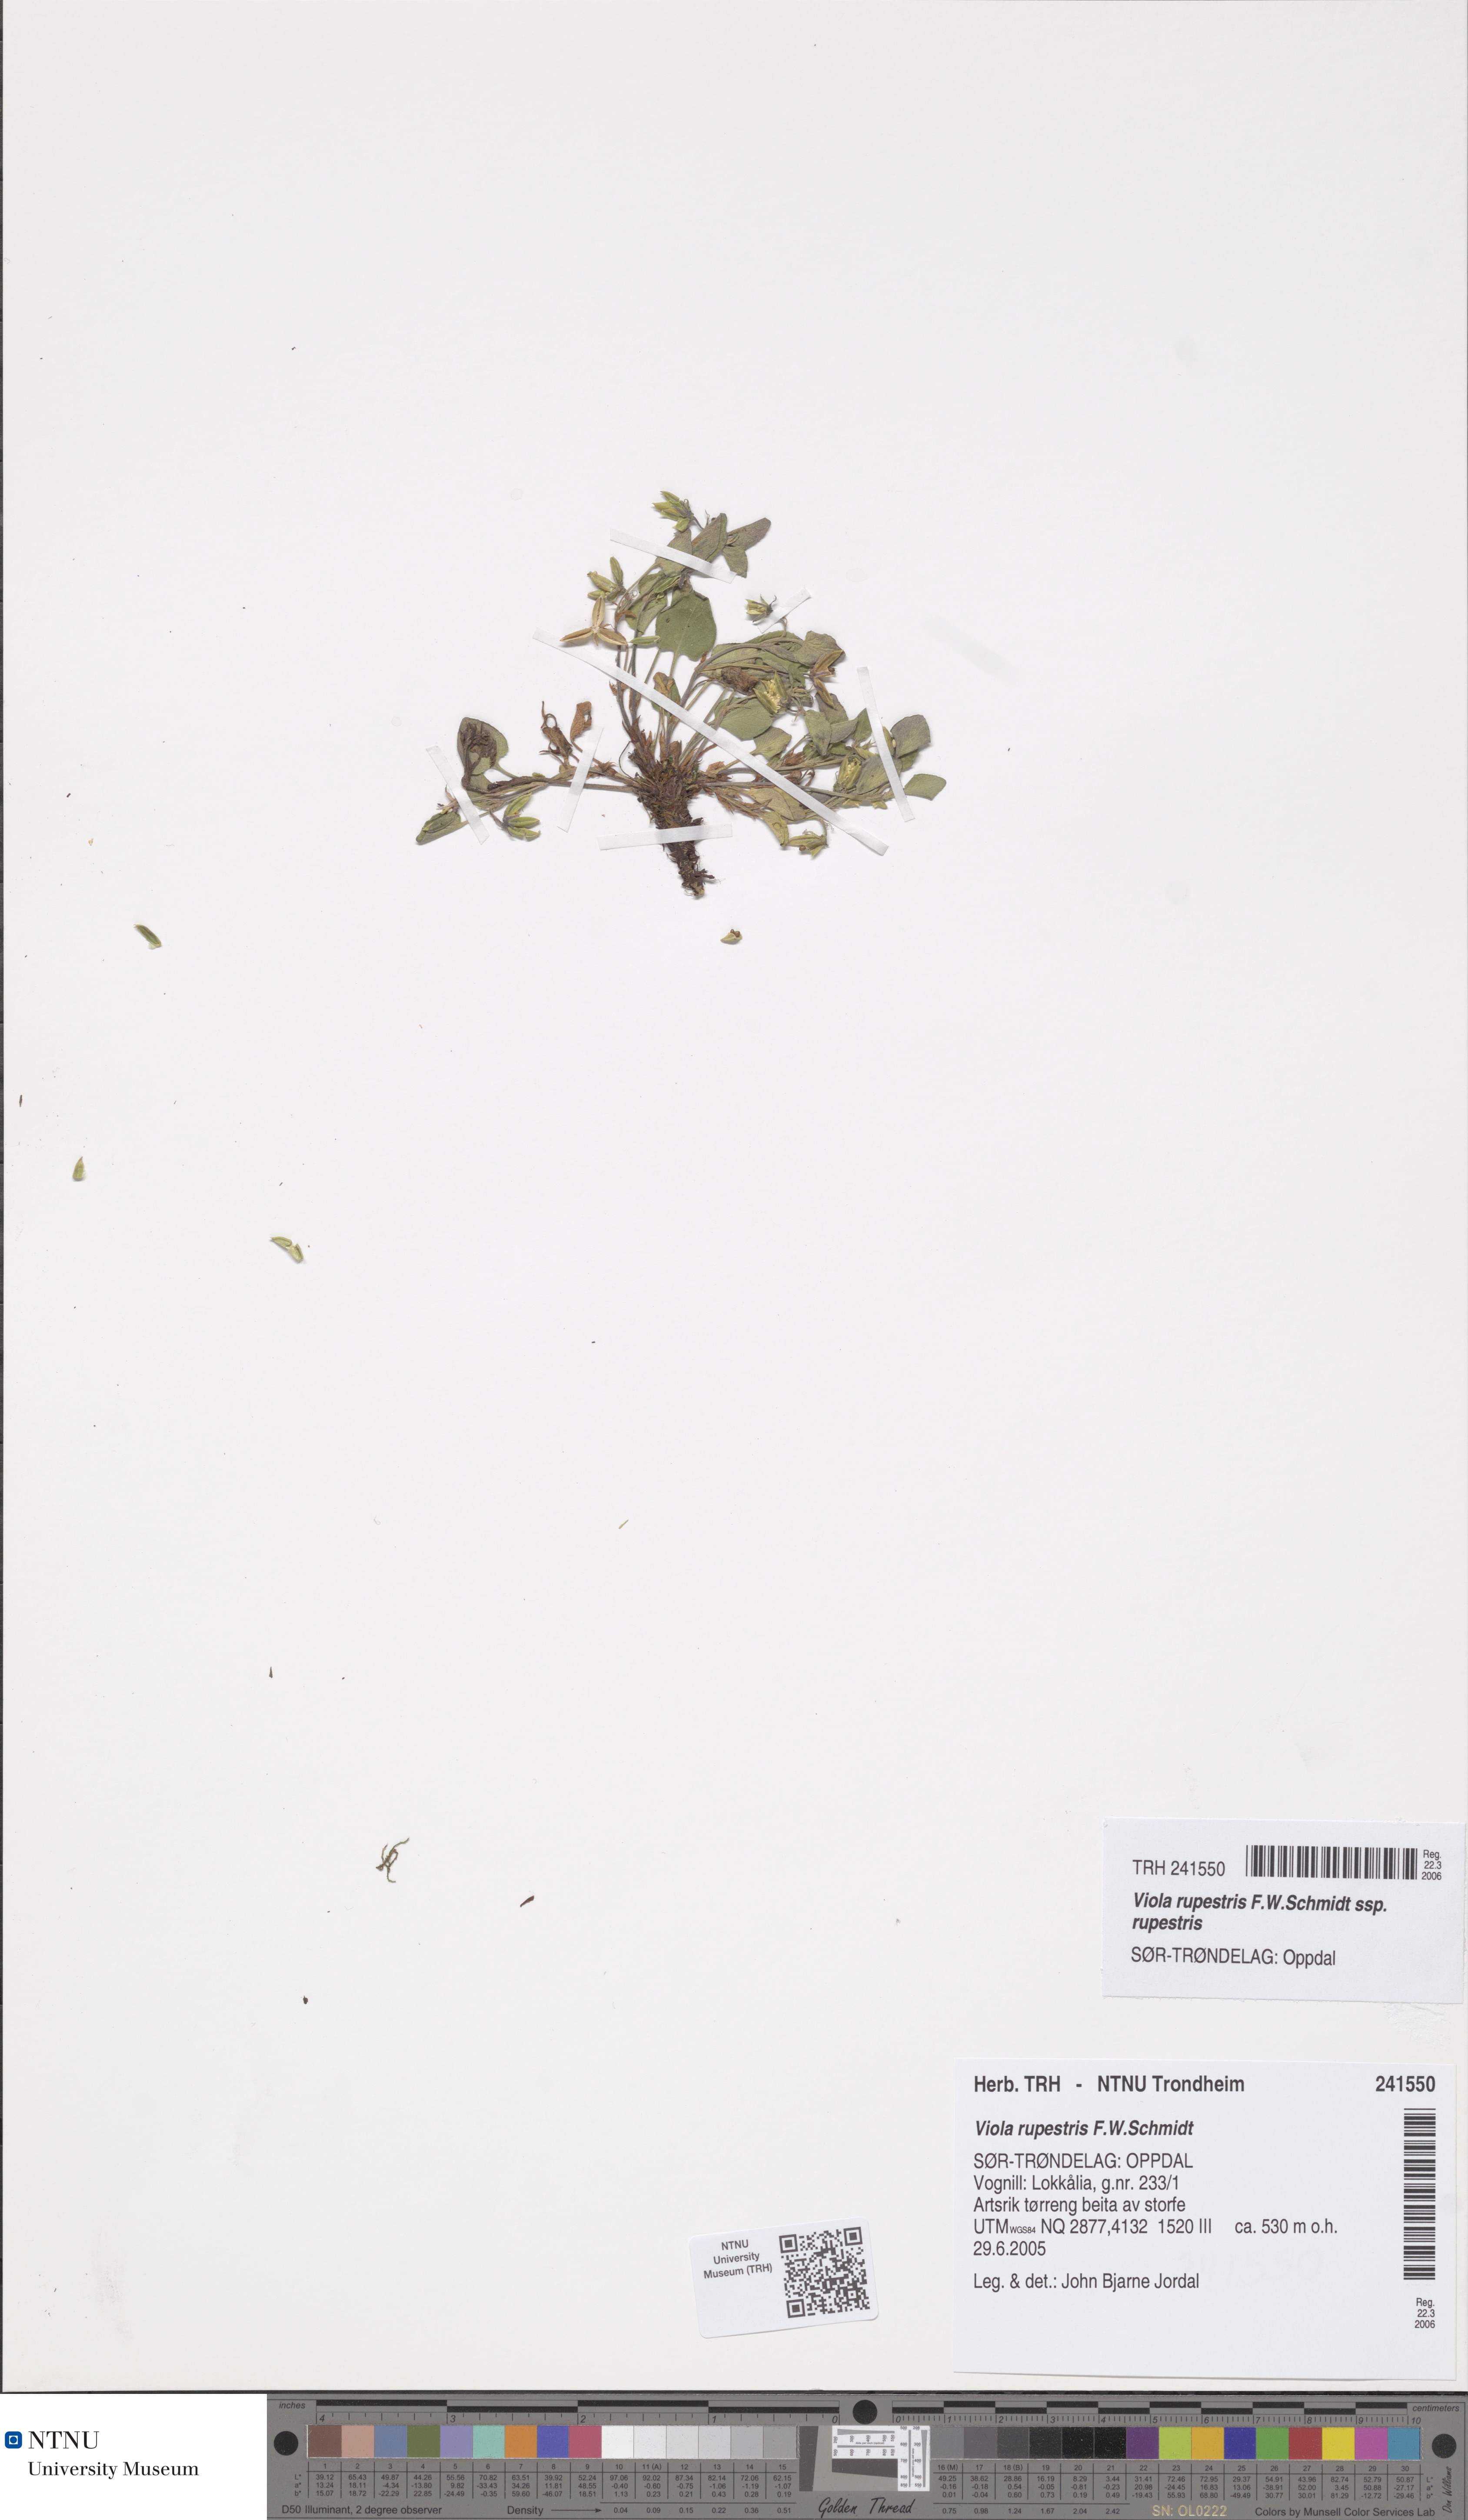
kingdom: Plantae
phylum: Tracheophyta
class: Magnoliopsida
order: Malpighiales
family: Violaceae
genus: Viola
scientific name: Viola rupestris
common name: Teesdale violet
